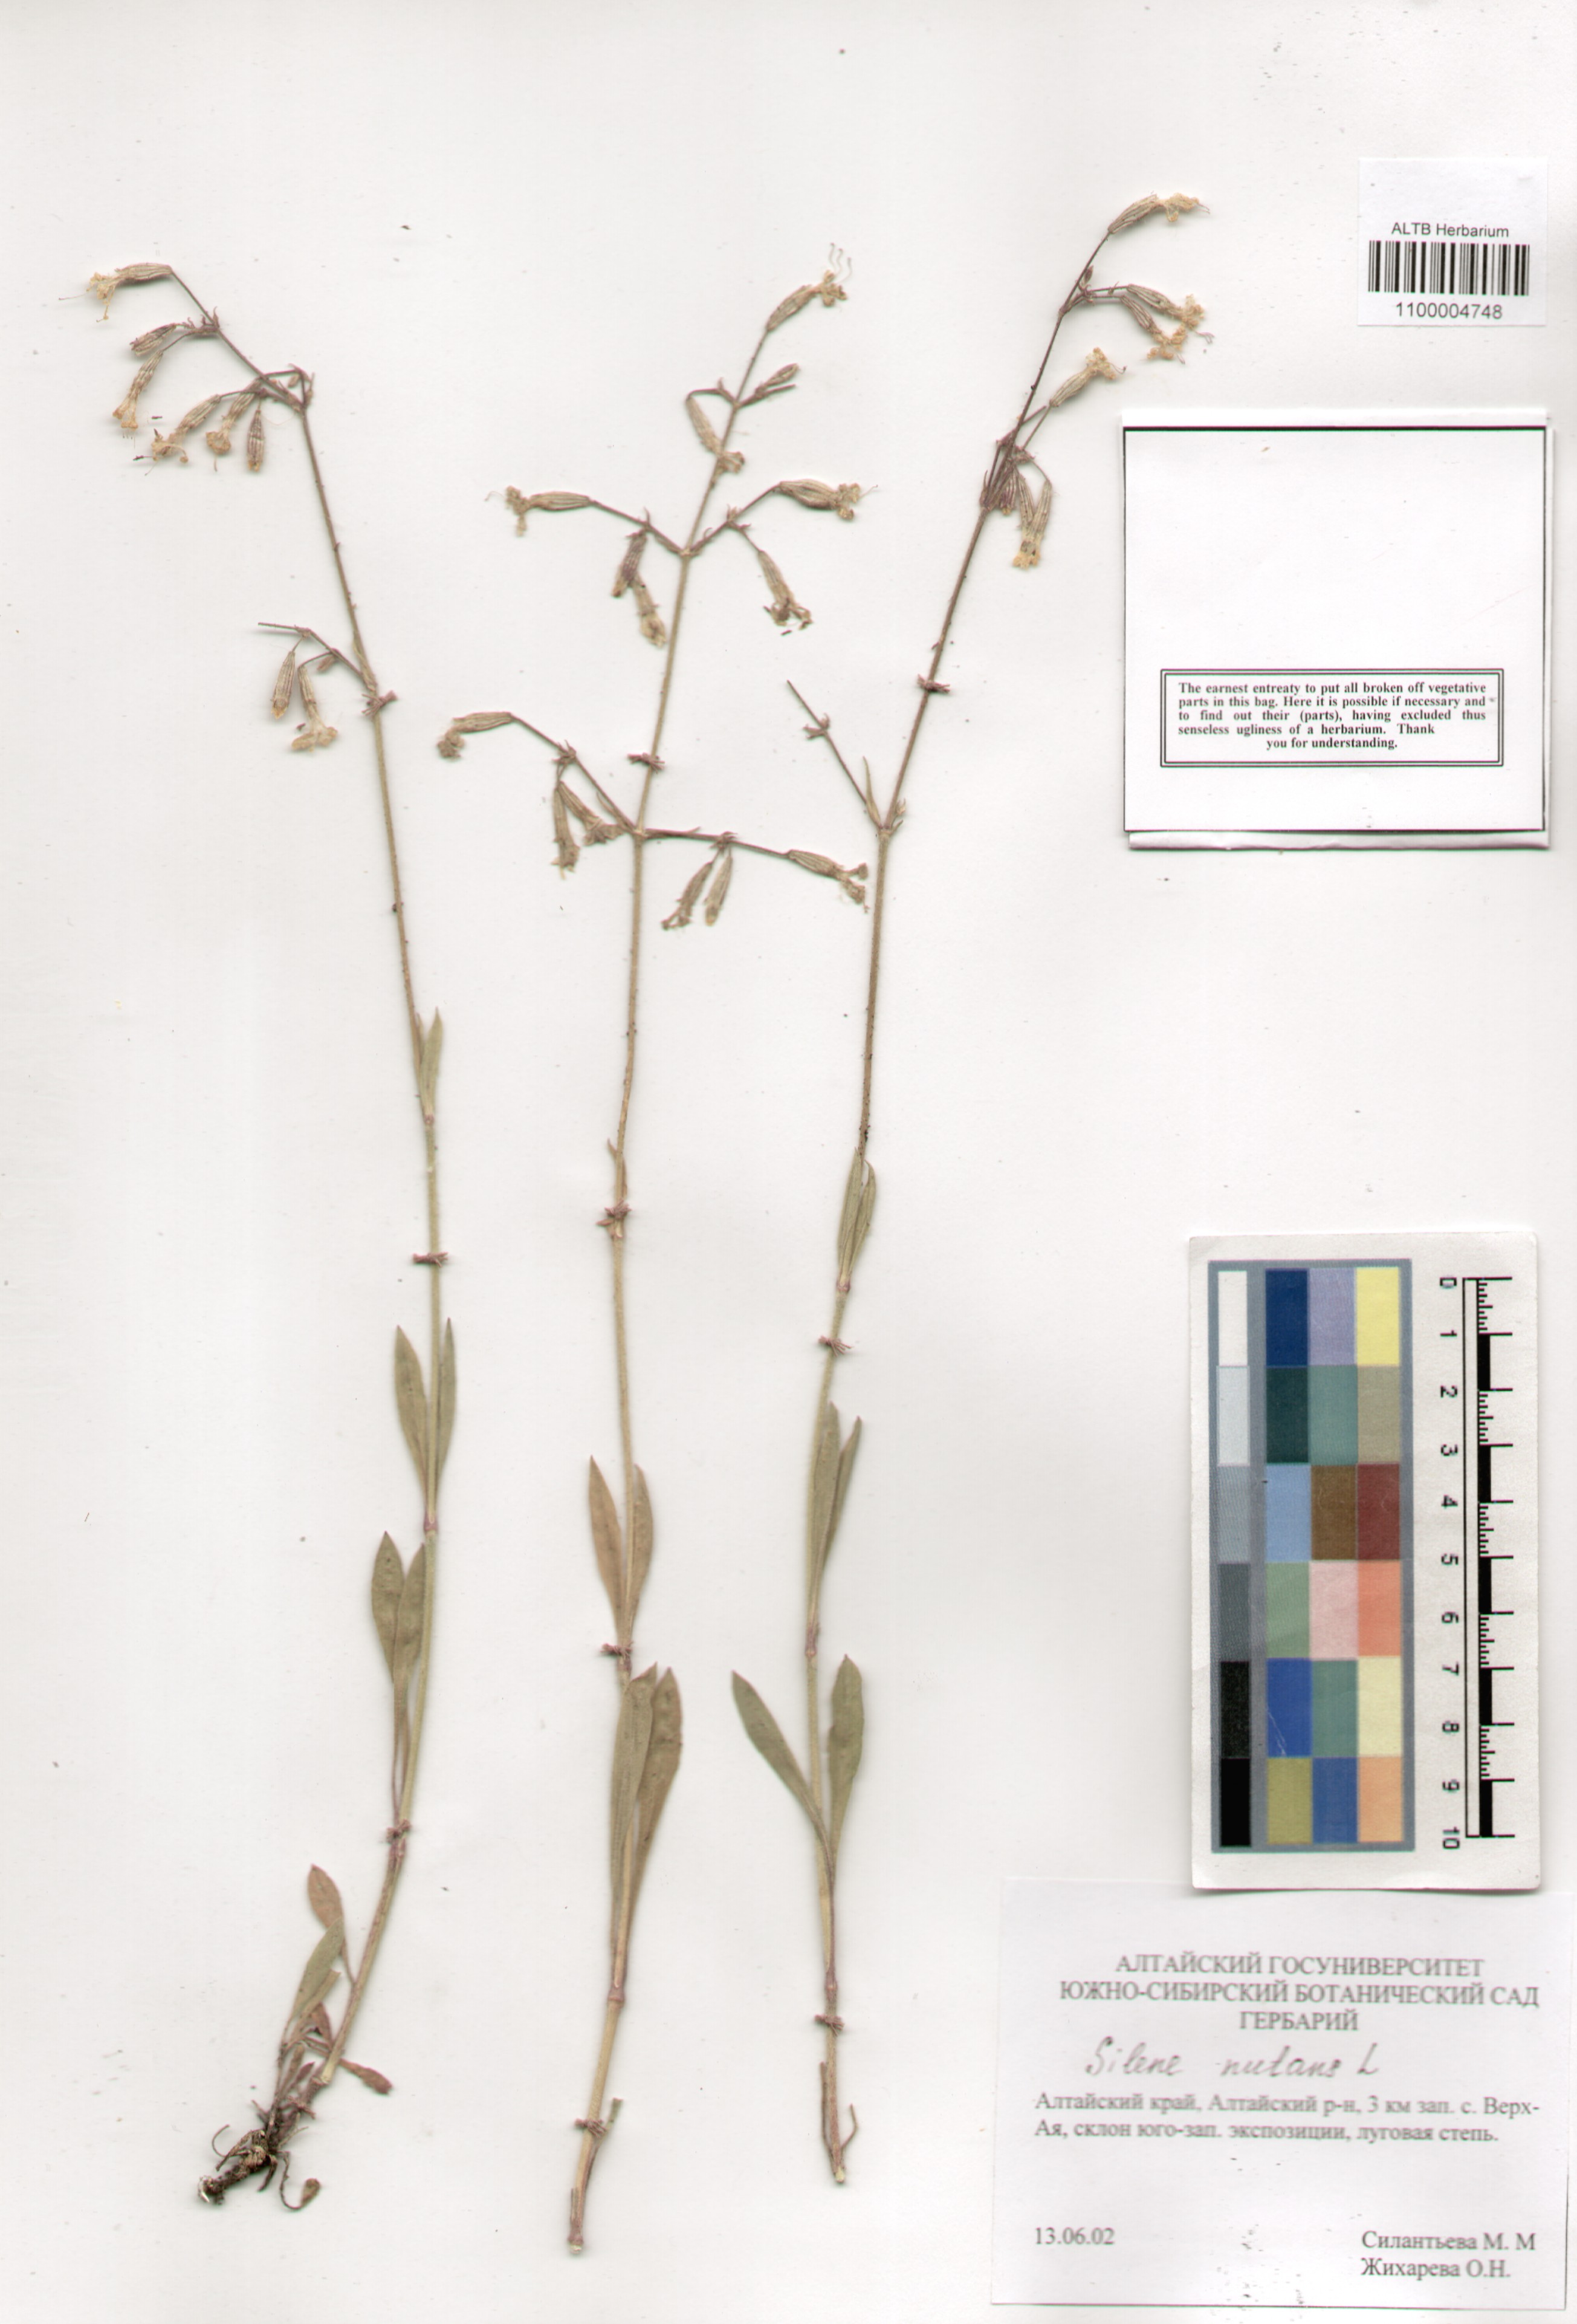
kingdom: Plantae
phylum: Tracheophyta
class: Magnoliopsida
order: Caryophyllales
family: Caryophyllaceae
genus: Silene
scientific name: Silene nutans
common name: Nottingham catchfly
